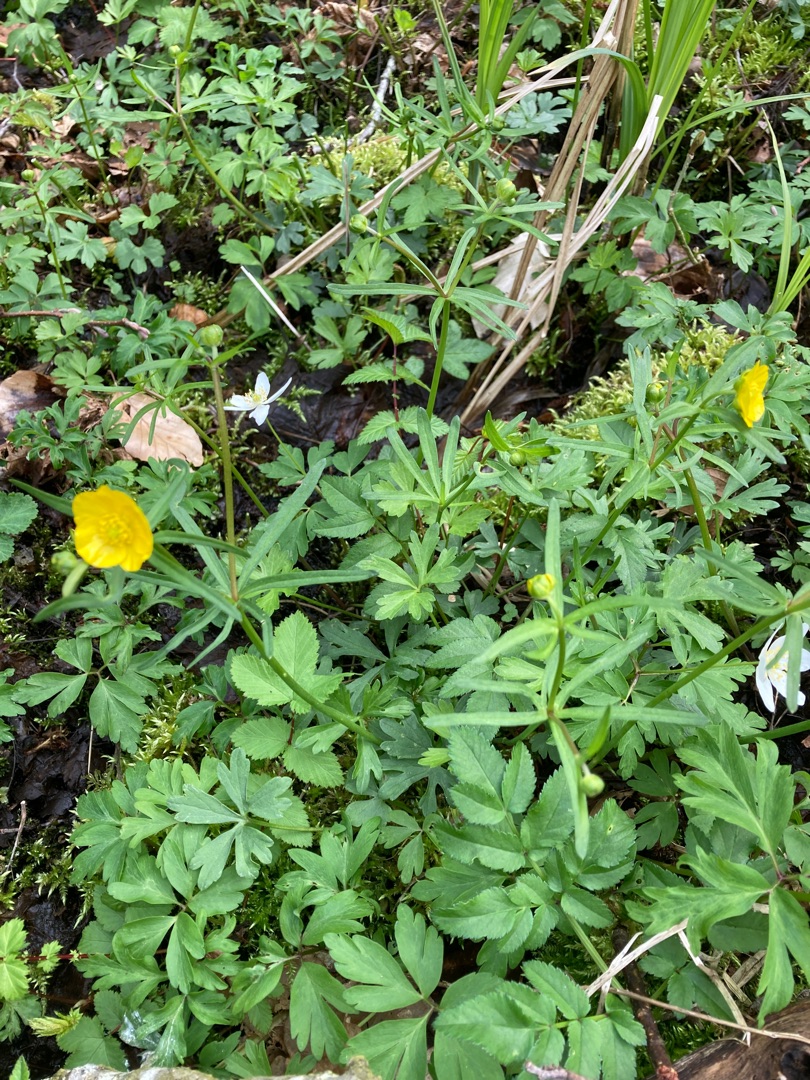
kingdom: Plantae
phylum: Tracheophyta
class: Magnoliopsida
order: Ranunculales
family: Ranunculaceae
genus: Ranunculus
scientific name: Ranunculus auricomus
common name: Nyrebladet ranunkel
